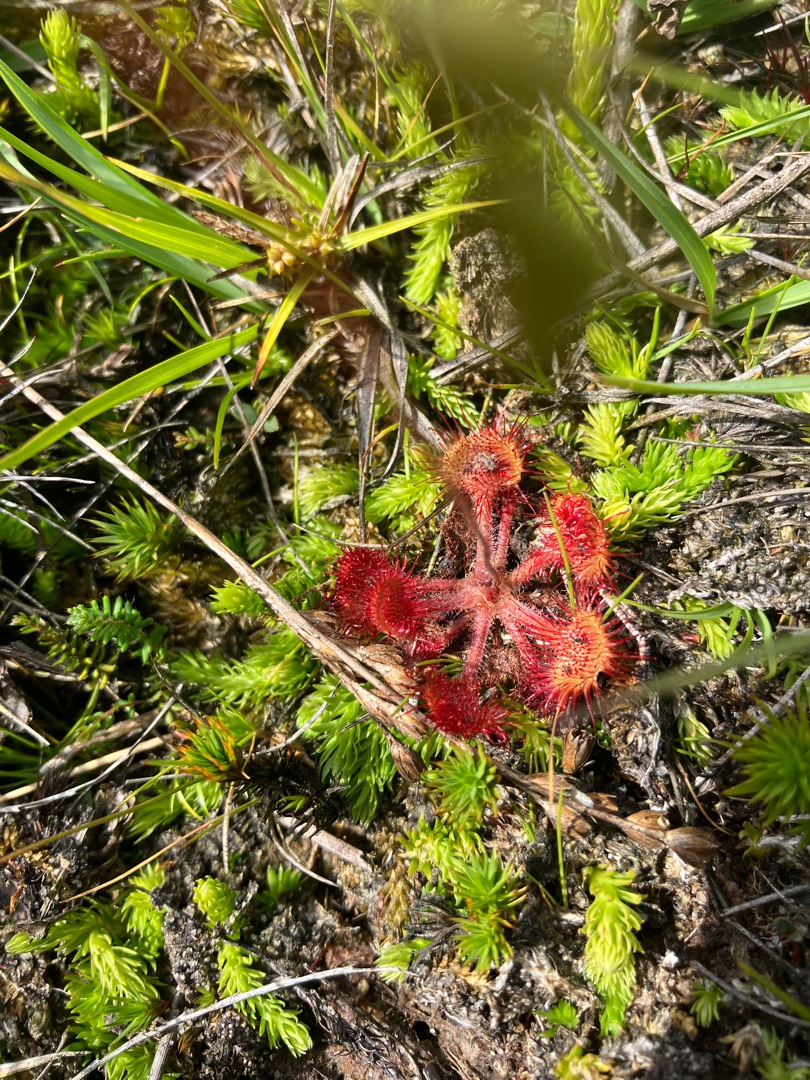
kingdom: Plantae
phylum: Tracheophyta
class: Magnoliopsida
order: Caryophyllales
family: Droseraceae
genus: Drosera
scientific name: Drosera rotundifolia
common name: Rundbladet soldug
